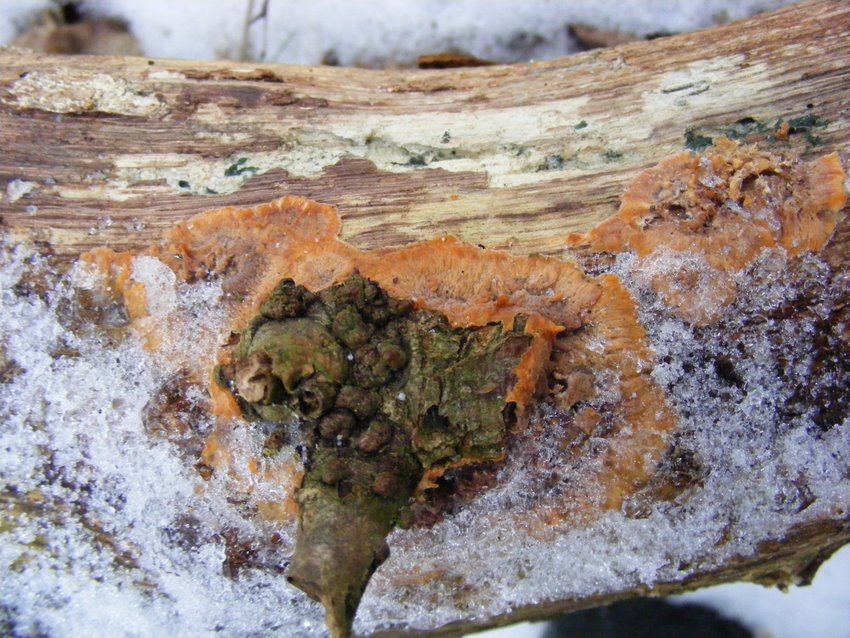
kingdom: Fungi
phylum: Basidiomycota
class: Agaricomycetes
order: Polyporales
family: Meruliaceae
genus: Phlebia
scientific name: Phlebia radiata
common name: stråle-åresvamp
